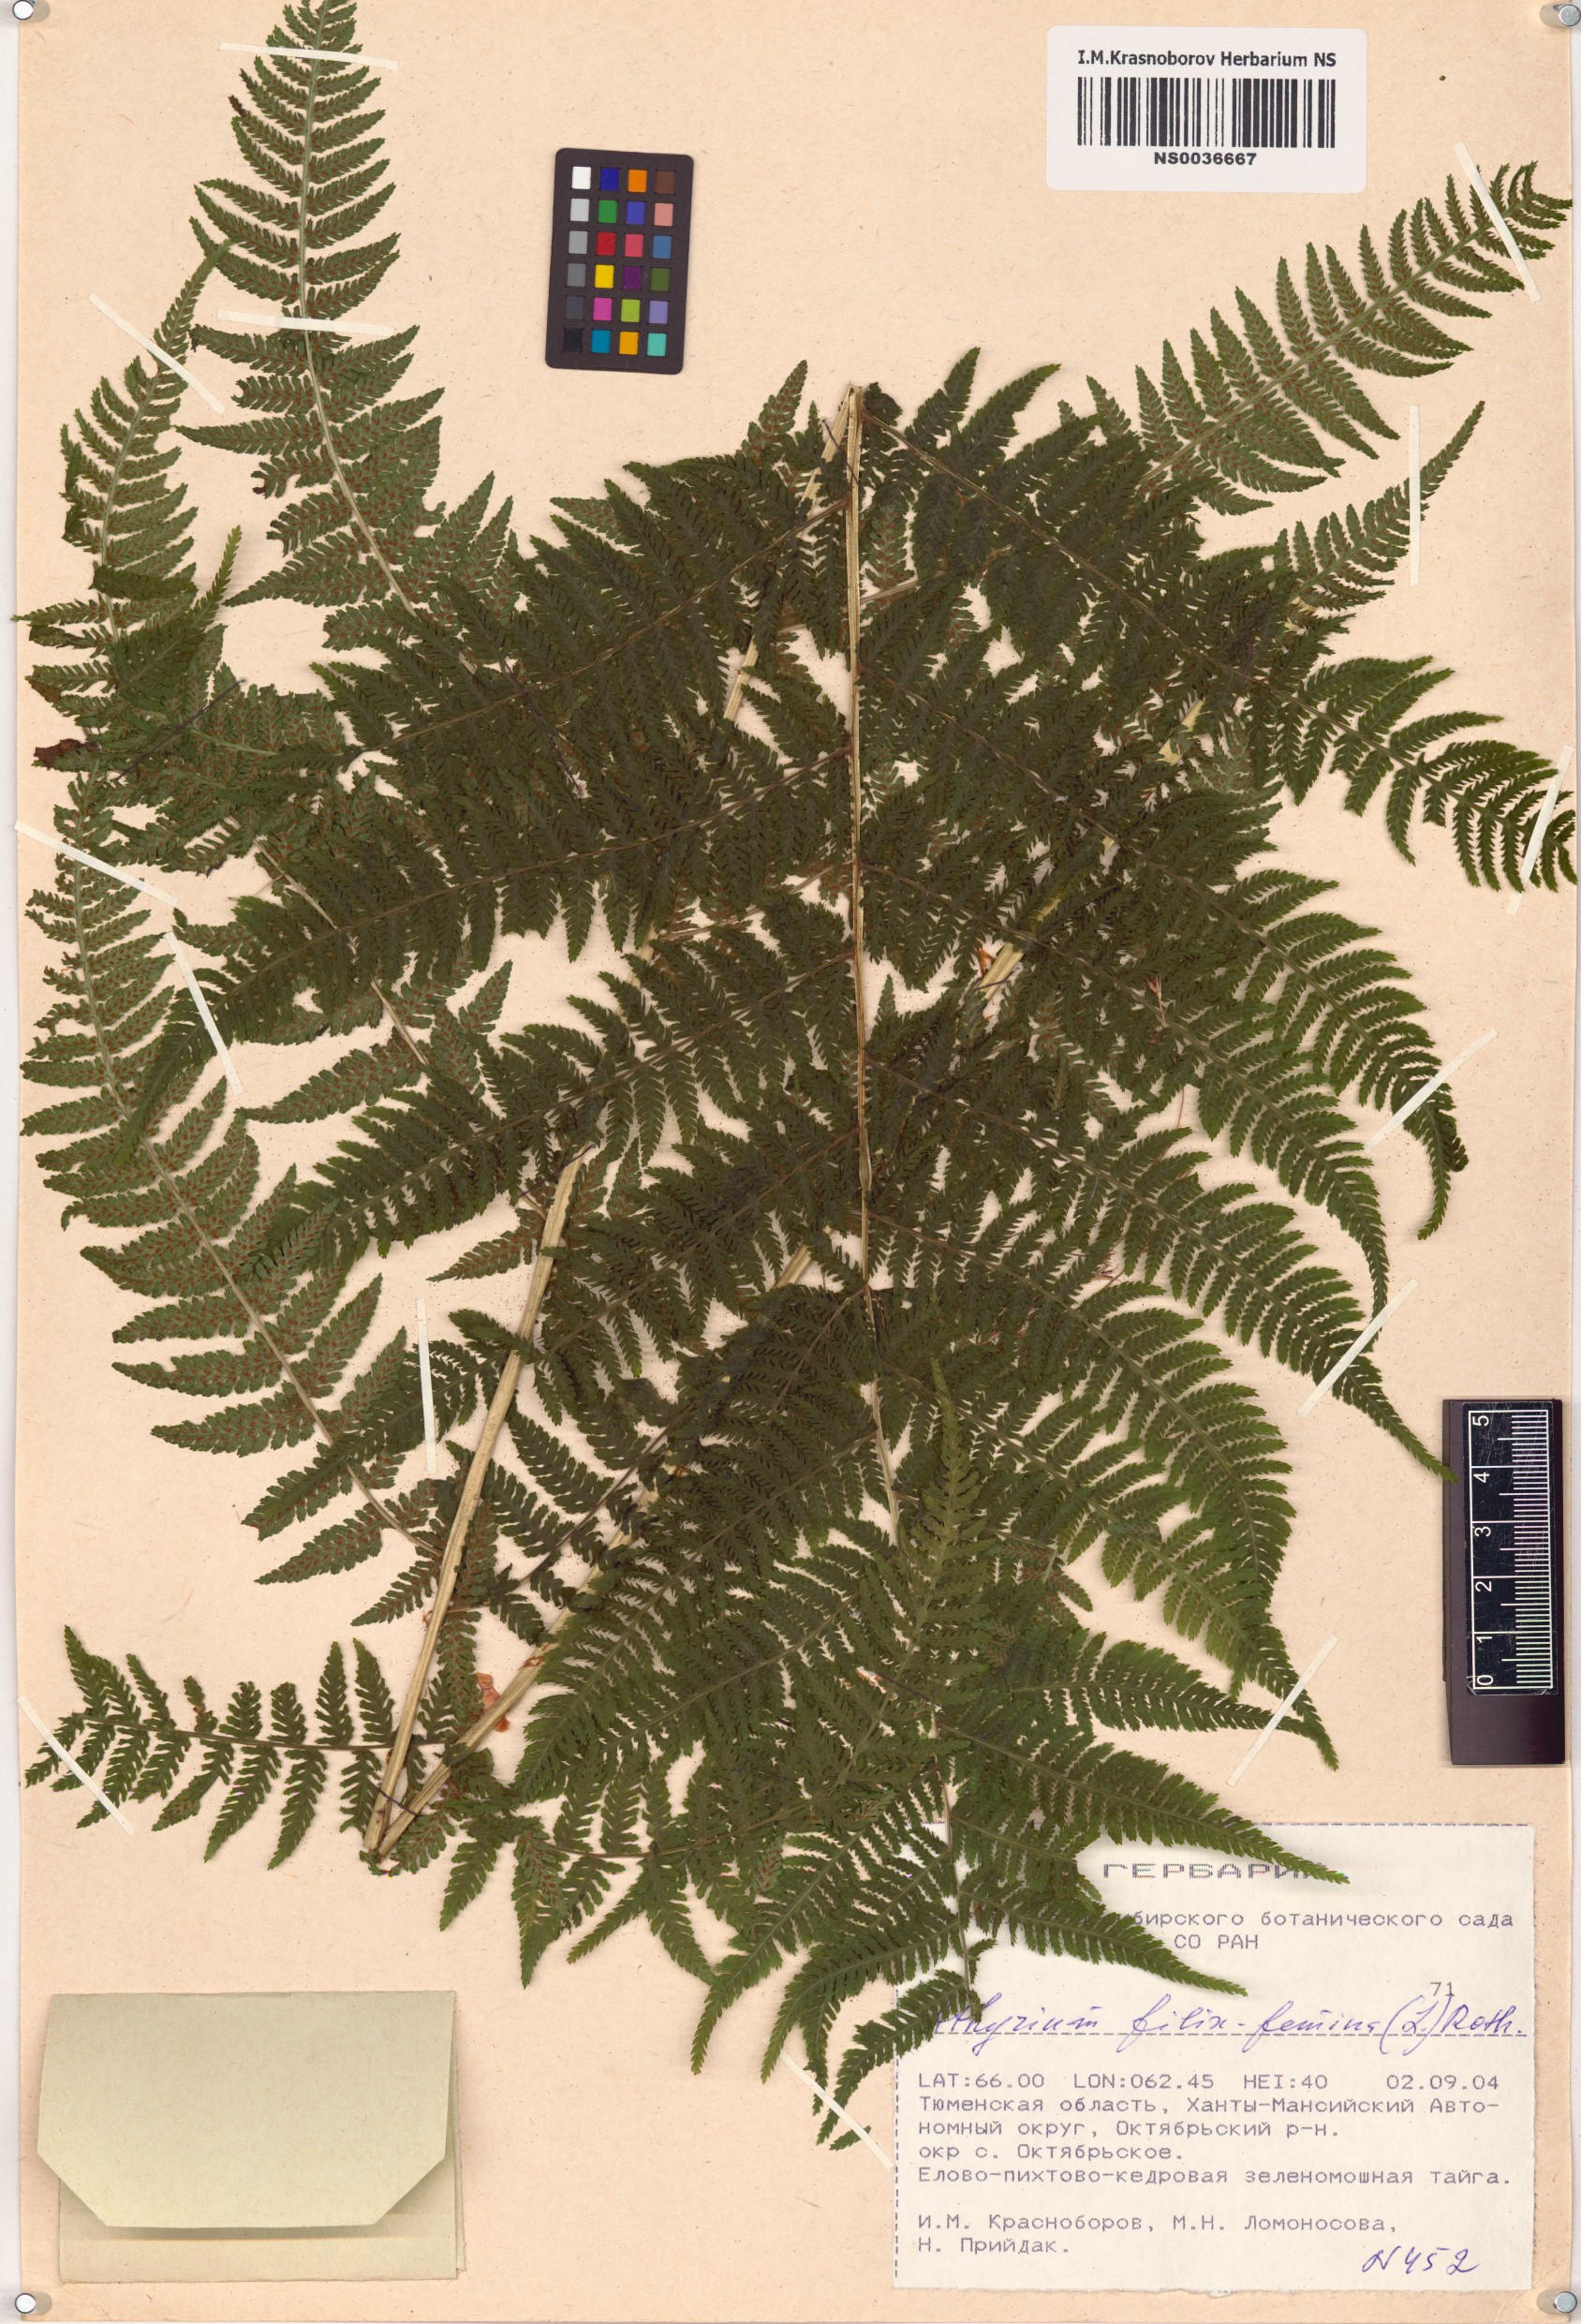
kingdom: Plantae
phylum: Tracheophyta
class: Polypodiopsida
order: Polypodiales
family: Athyriaceae
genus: Athyrium
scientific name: Athyrium filix-femina
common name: Lady fern
